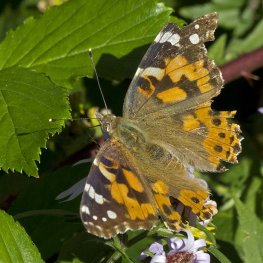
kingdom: Animalia
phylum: Arthropoda
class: Insecta
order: Lepidoptera
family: Nymphalidae
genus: Vanessa
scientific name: Vanessa cardui
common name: Painted Lady
